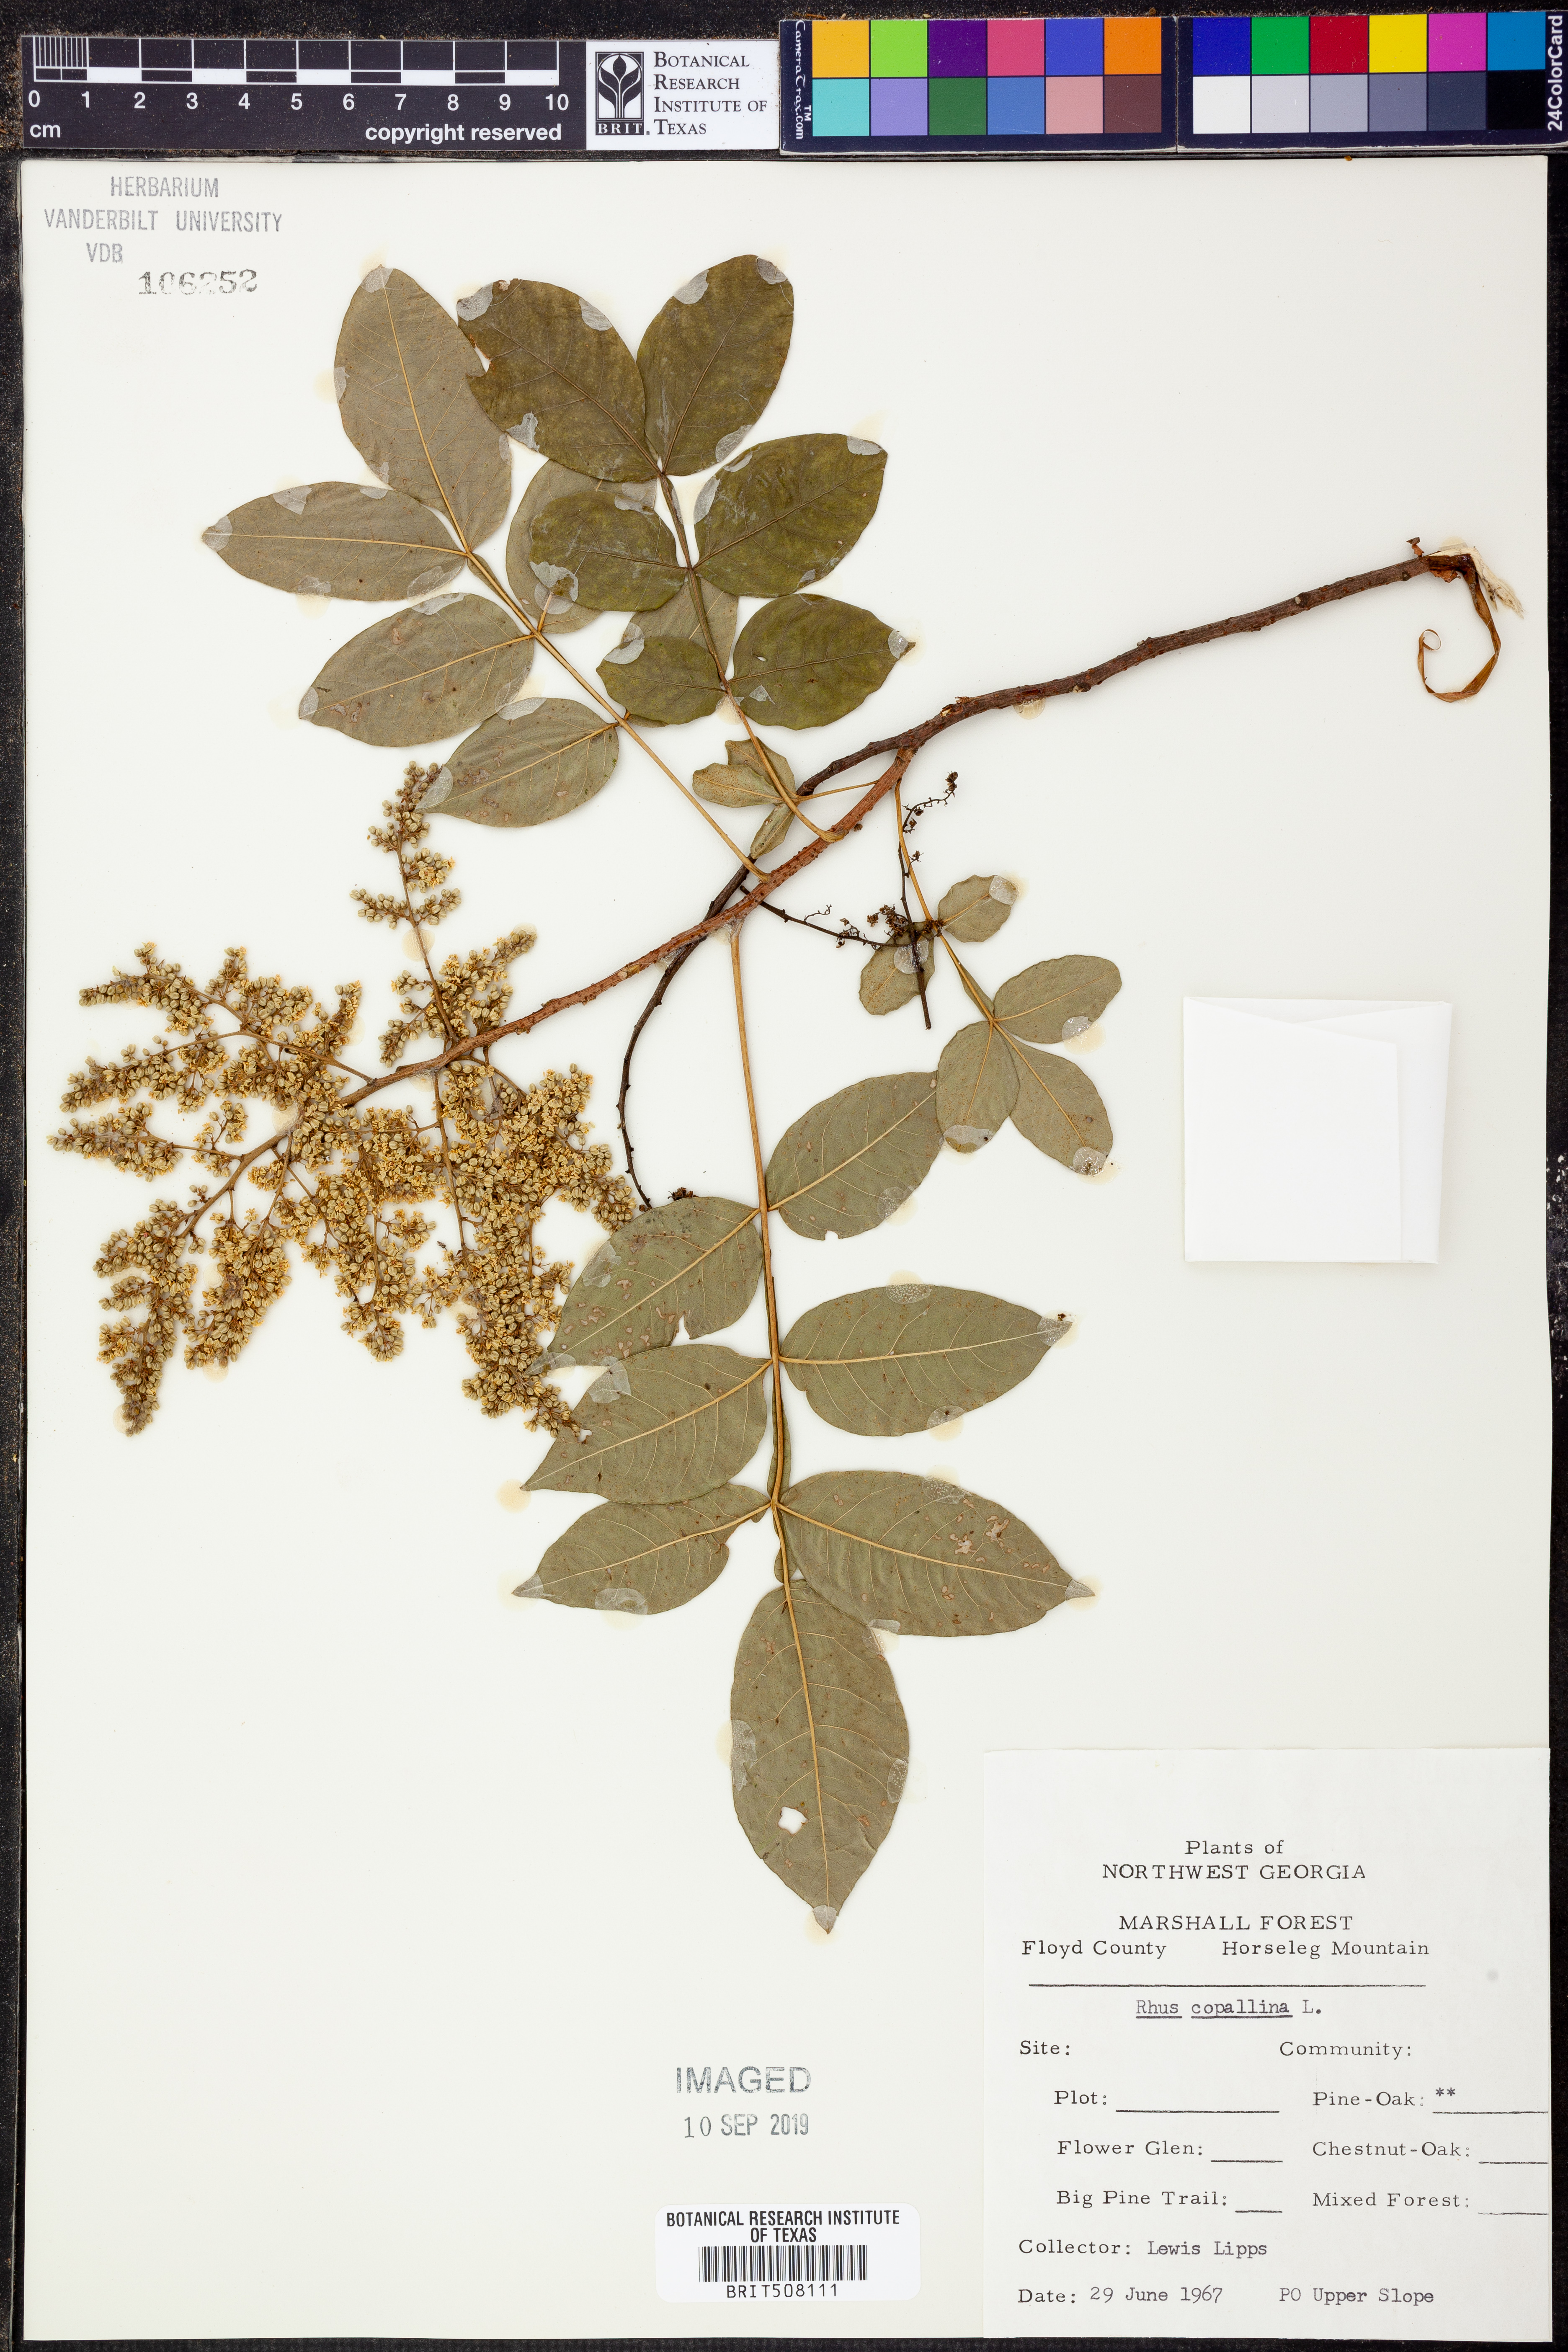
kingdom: Plantae
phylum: Tracheophyta
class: Magnoliopsida
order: Sapindales
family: Anacardiaceae
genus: Rhus
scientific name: Rhus copallina
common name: Shining sumac
